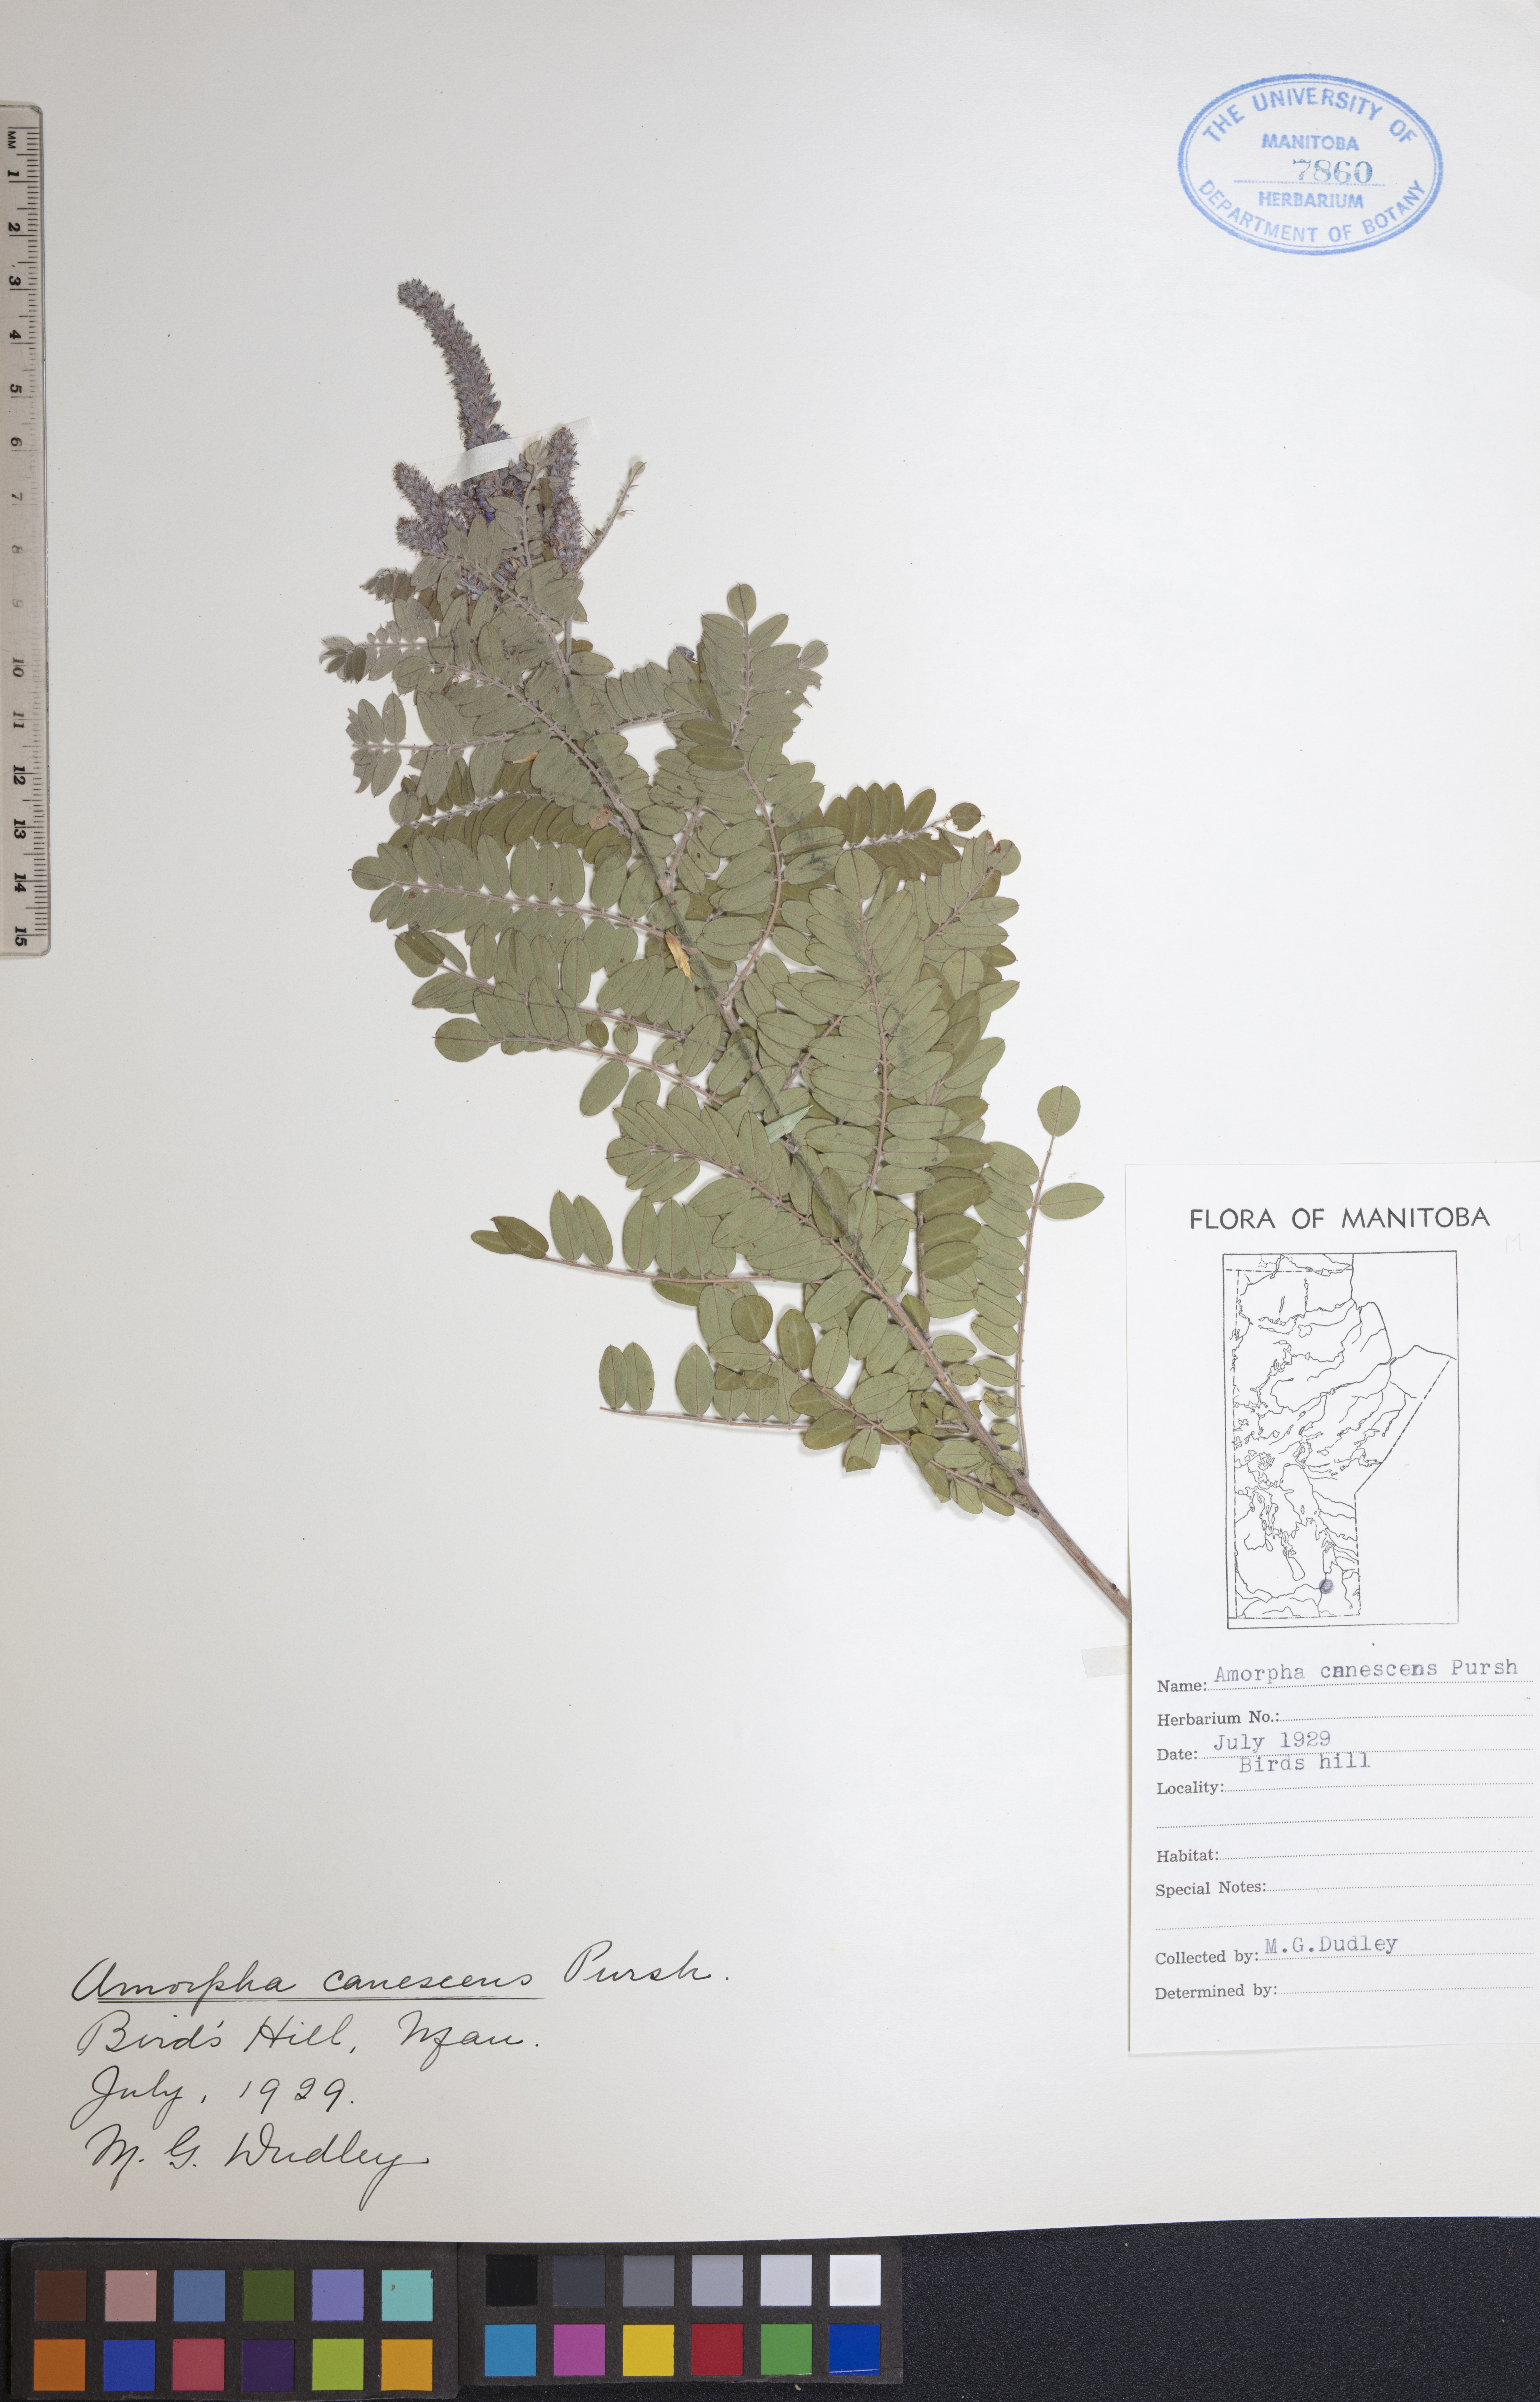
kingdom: Plantae
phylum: Tracheophyta
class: Magnoliopsida
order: Fabales
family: Fabaceae
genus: Amorpha
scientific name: Amorpha canescens
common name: Leadplant
